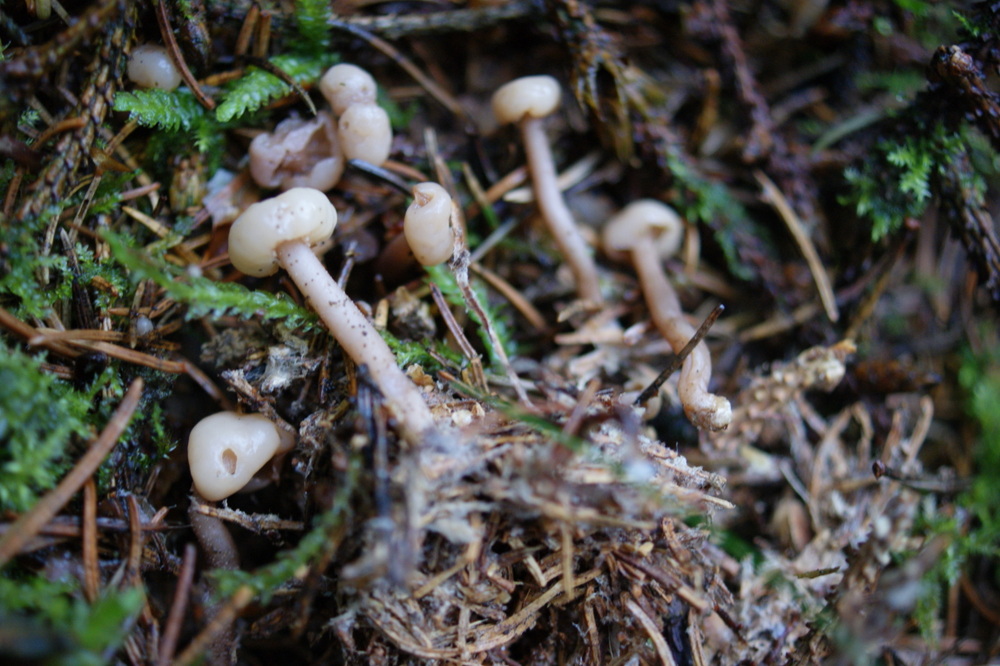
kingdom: Fungi
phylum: Ascomycota
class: Leotiomycetes
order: Rhytismatales
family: Cudoniaceae
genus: Cudonia
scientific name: Cudonia circinans
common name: hekserings-hjelmmorkel
